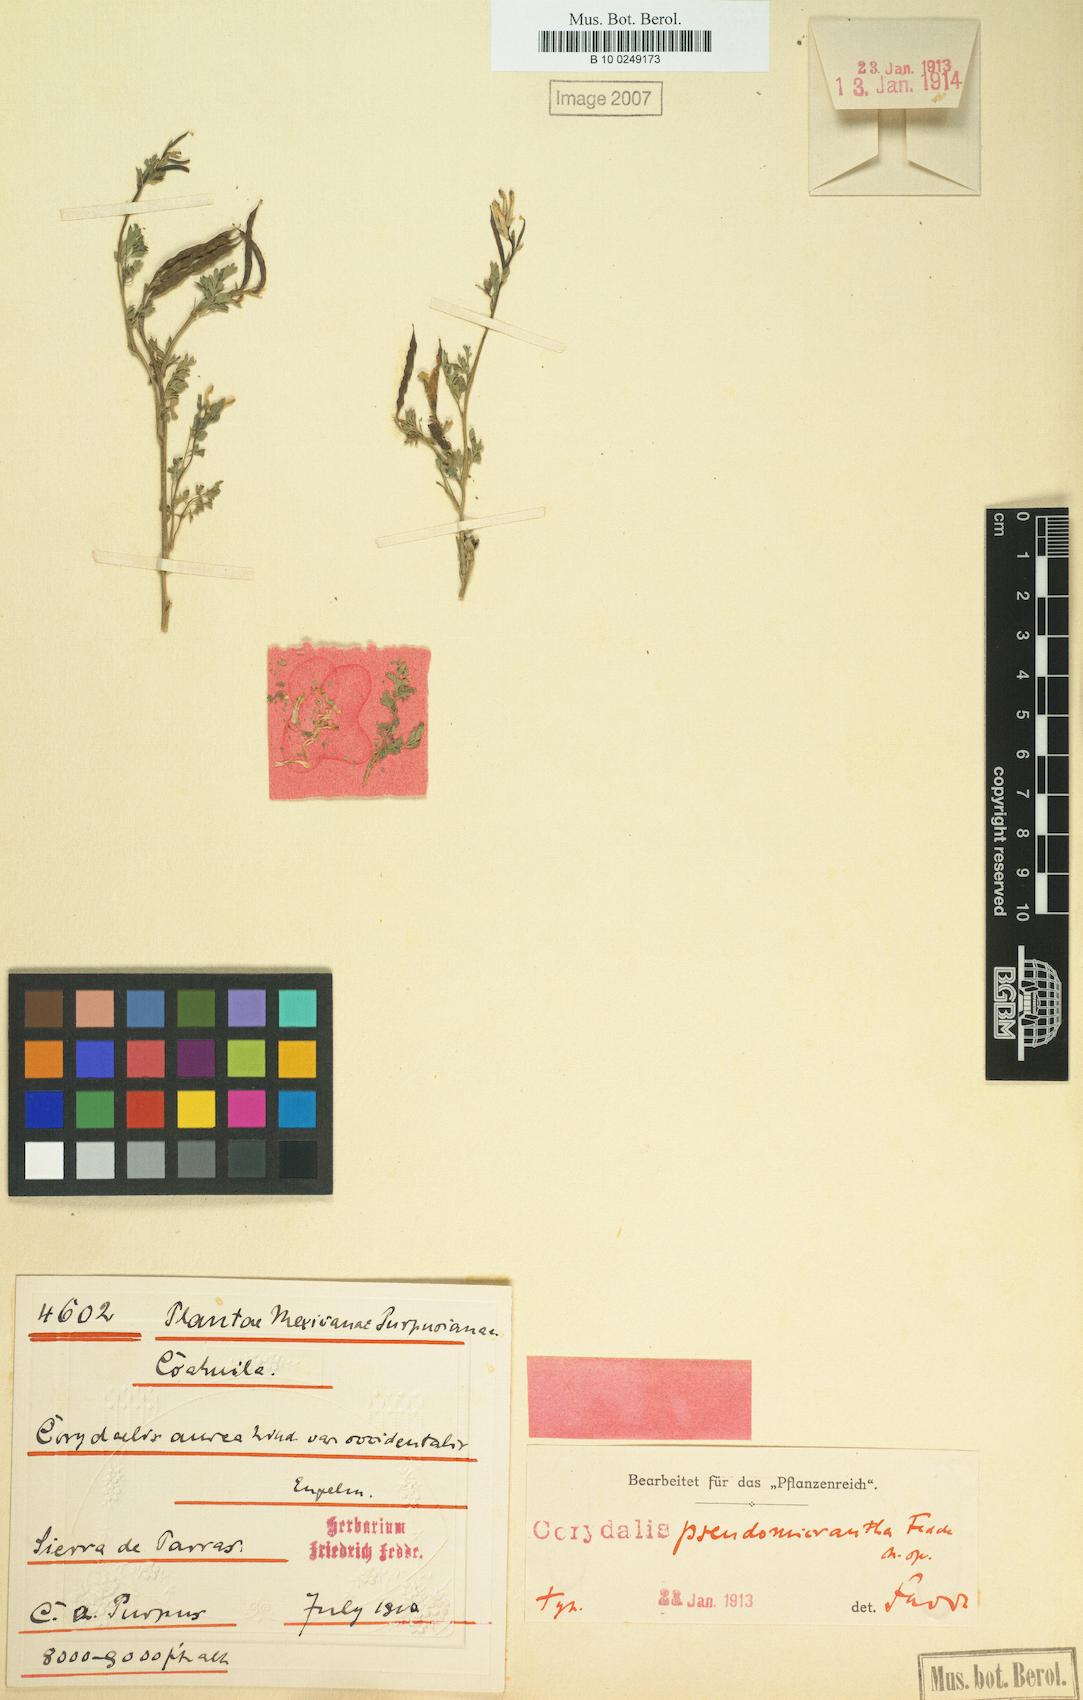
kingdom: Plantae
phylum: Tracheophyta
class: Magnoliopsida
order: Ranunculales
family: Papaveraceae
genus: Corydalis
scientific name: Corydalis pseudomicrantha
